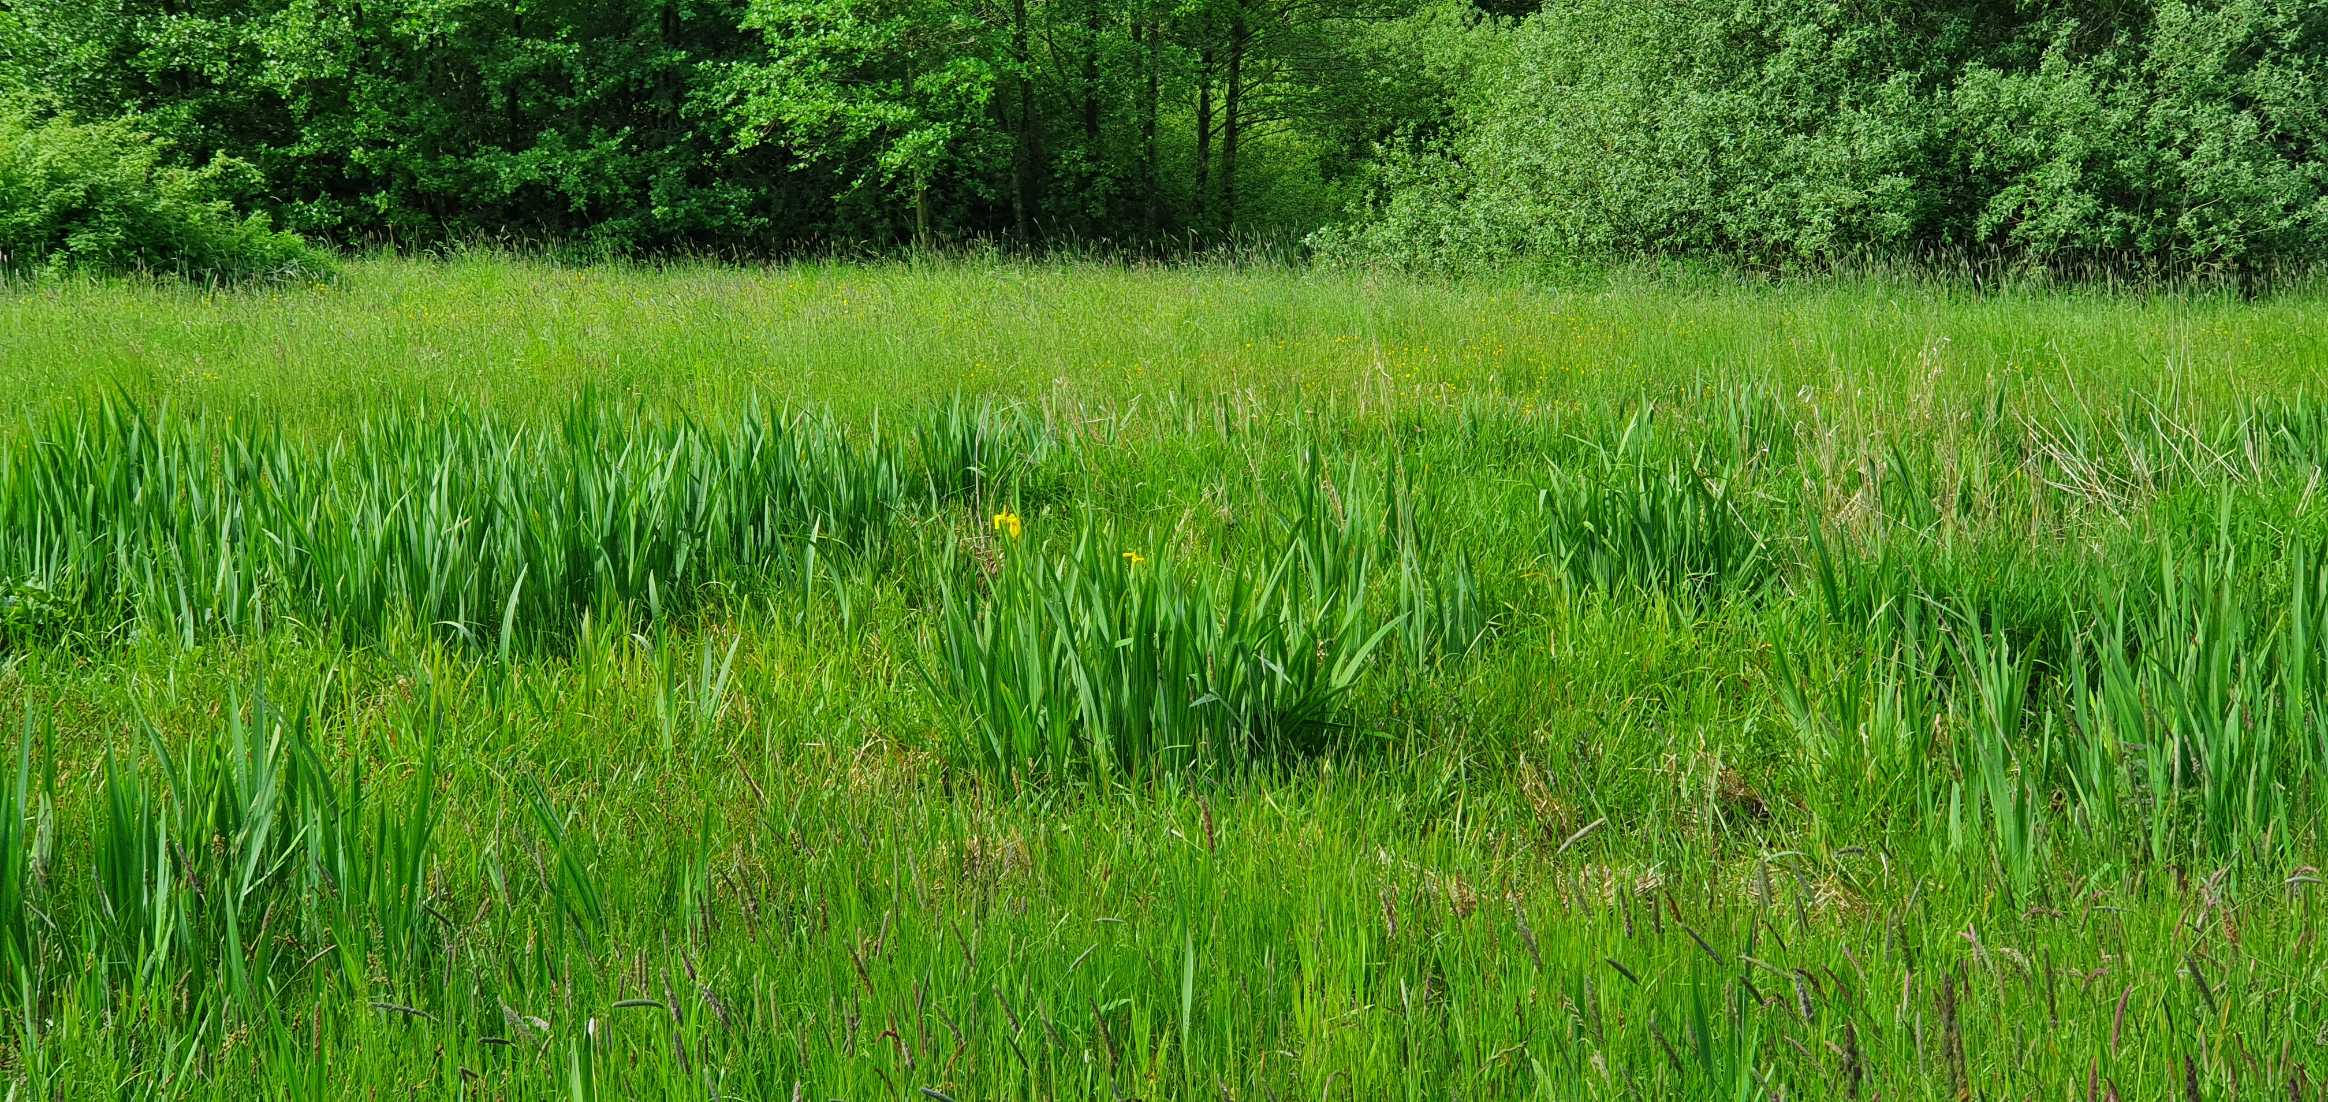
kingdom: Plantae
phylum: Tracheophyta
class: Liliopsida
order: Asparagales
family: Iridaceae
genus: Iris
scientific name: Iris pseudacorus
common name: Gul iris
